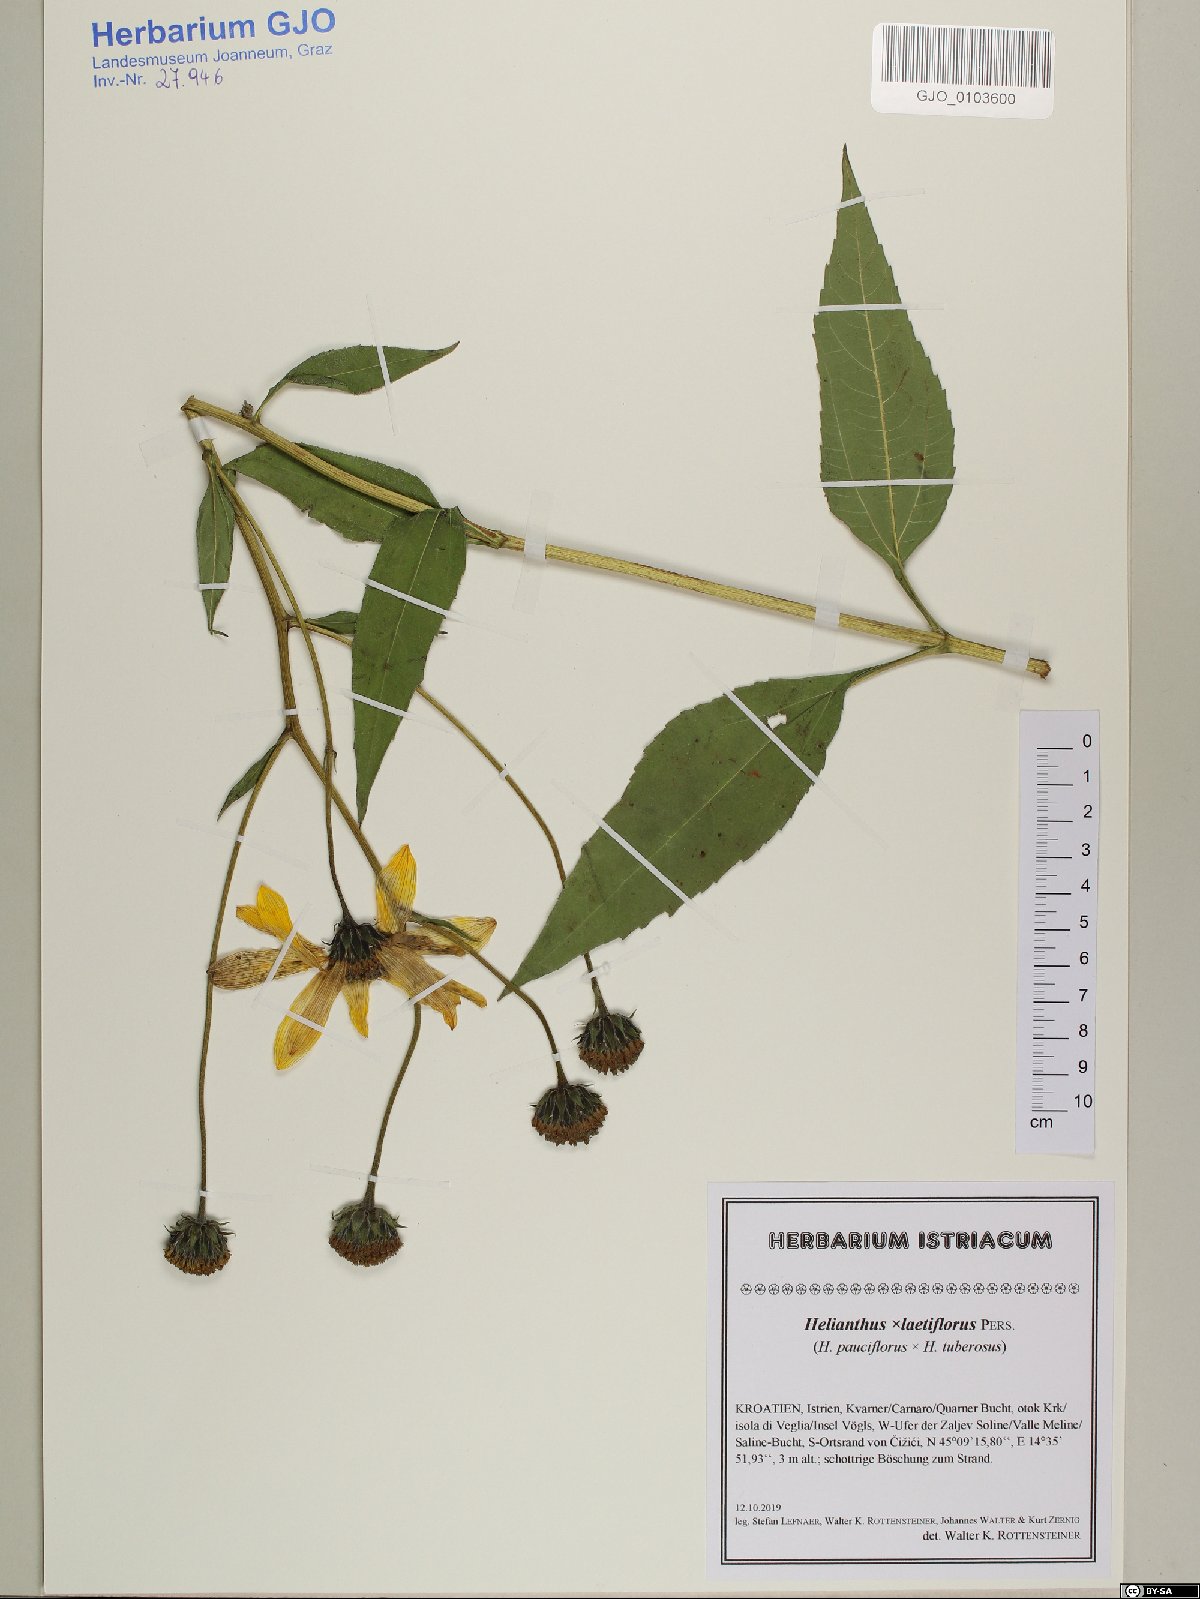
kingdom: Plantae
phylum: Tracheophyta
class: Magnoliopsida
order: Asterales
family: Asteraceae
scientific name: Asteraceae
